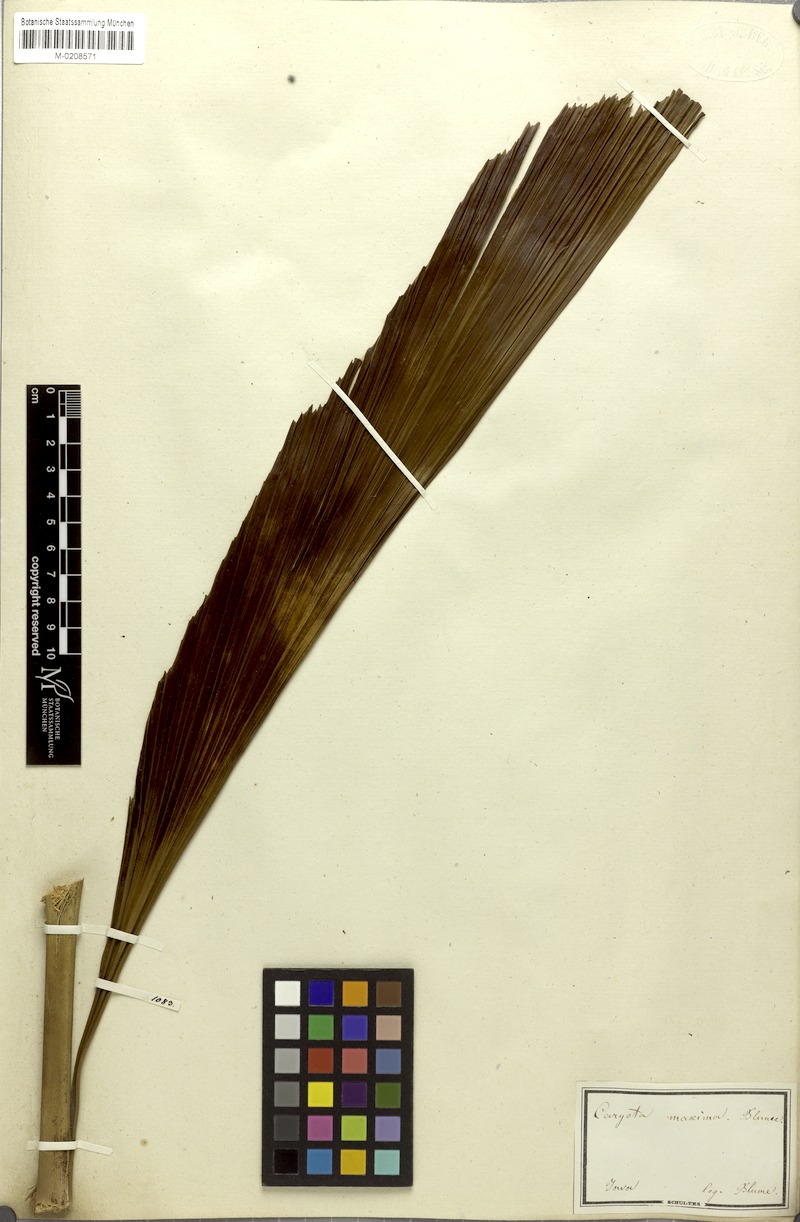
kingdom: Plantae
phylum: Tracheophyta
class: Liliopsida
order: Arecales
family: Arecaceae
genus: Caryota
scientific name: Caryota maxima
